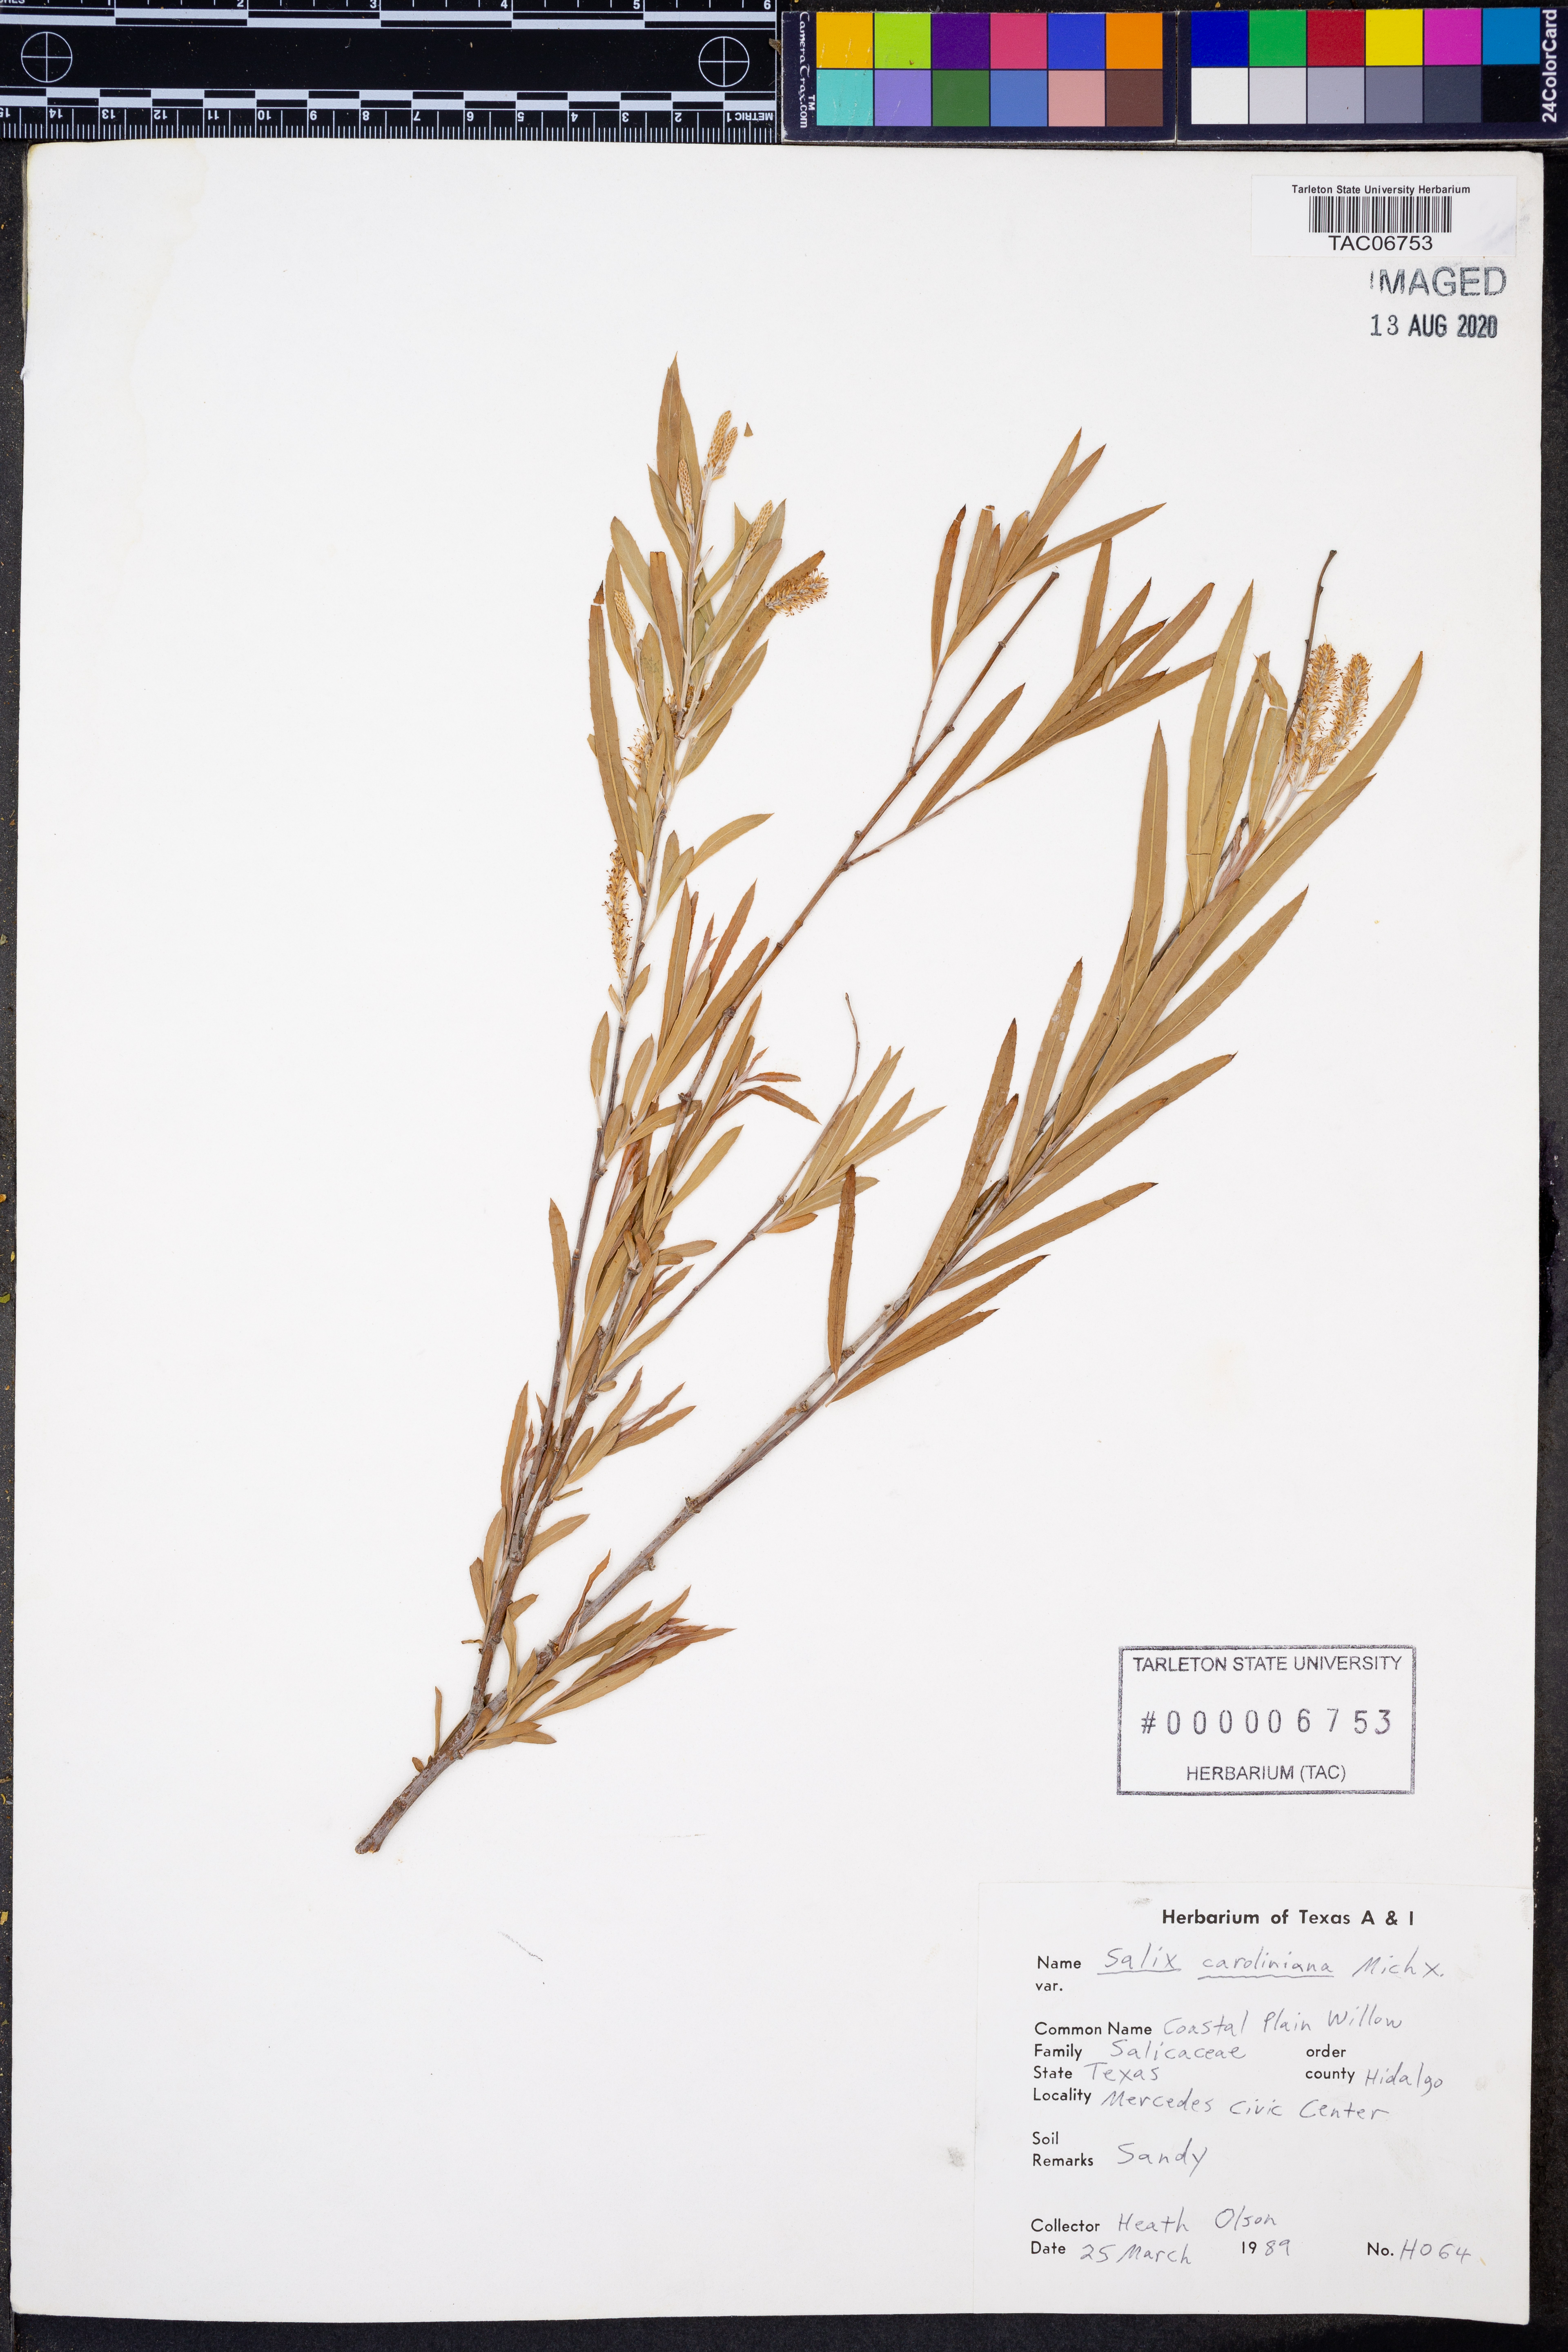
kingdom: Plantae
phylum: Tracheophyta
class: Magnoliopsida
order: Malpighiales
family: Salicaceae
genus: Salix
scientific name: Salix caroliniana
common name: Carolina willow
